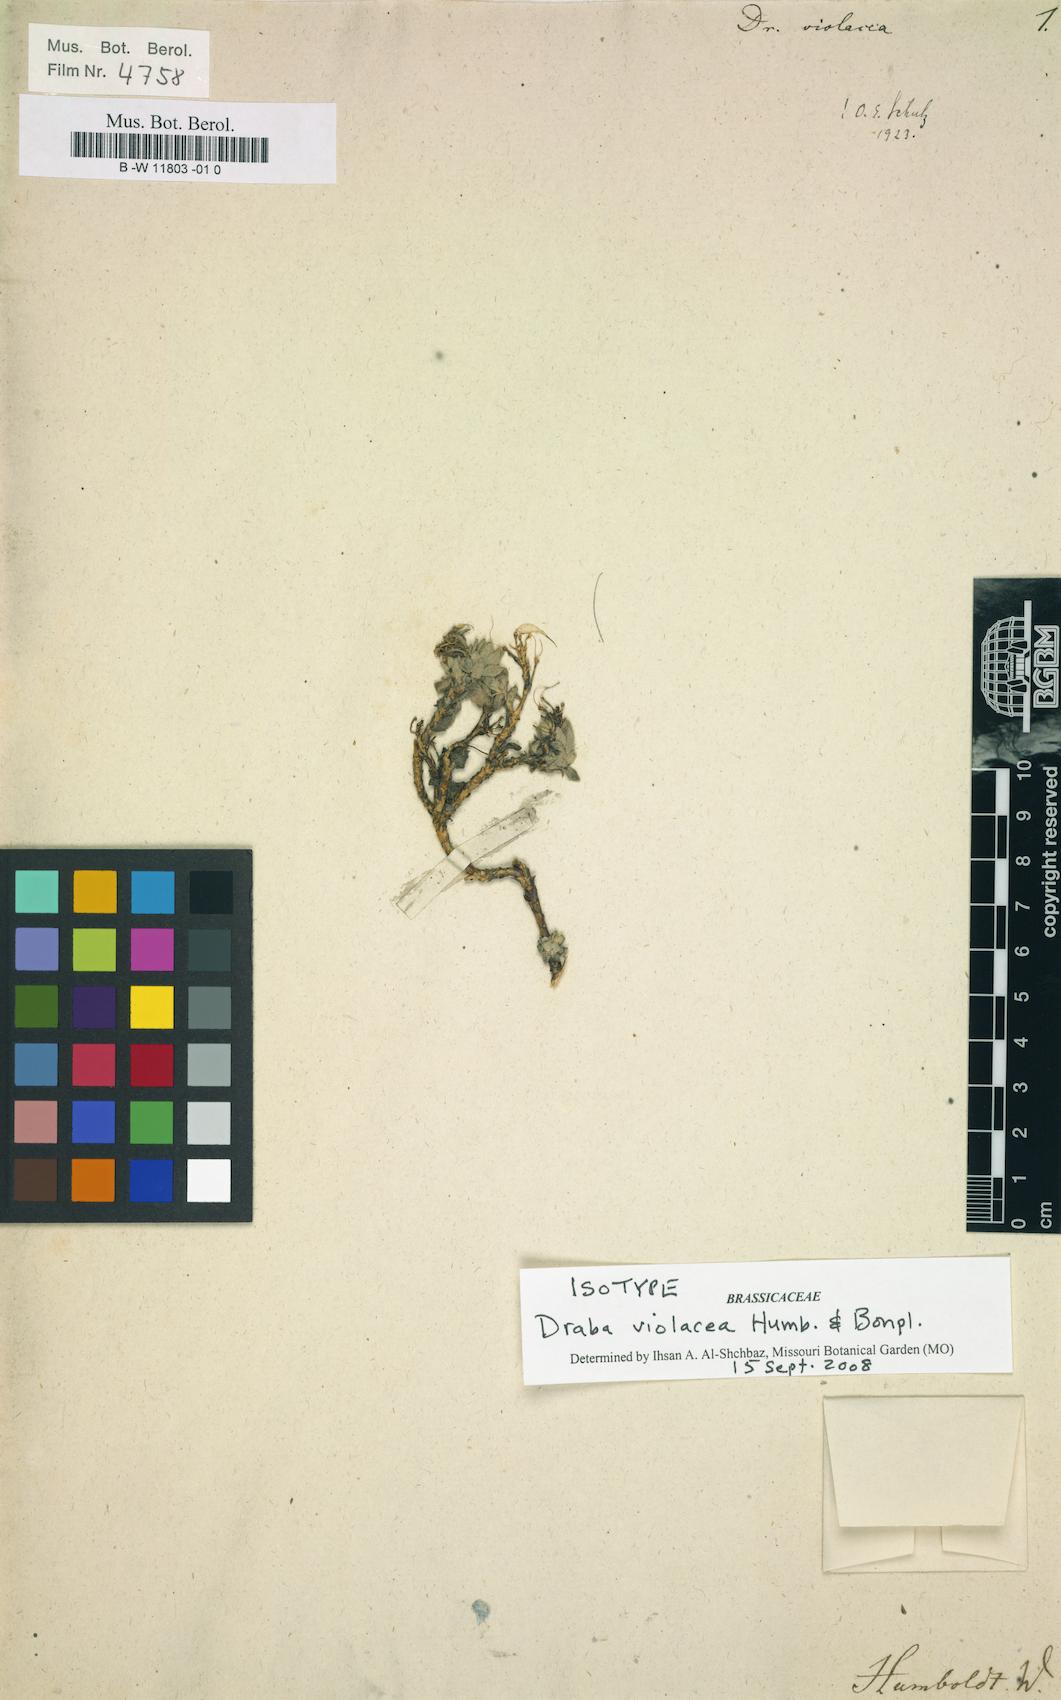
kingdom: Plantae
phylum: Tracheophyta
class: Magnoliopsida
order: Brassicales
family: Brassicaceae
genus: Draba
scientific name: Draba violacea
